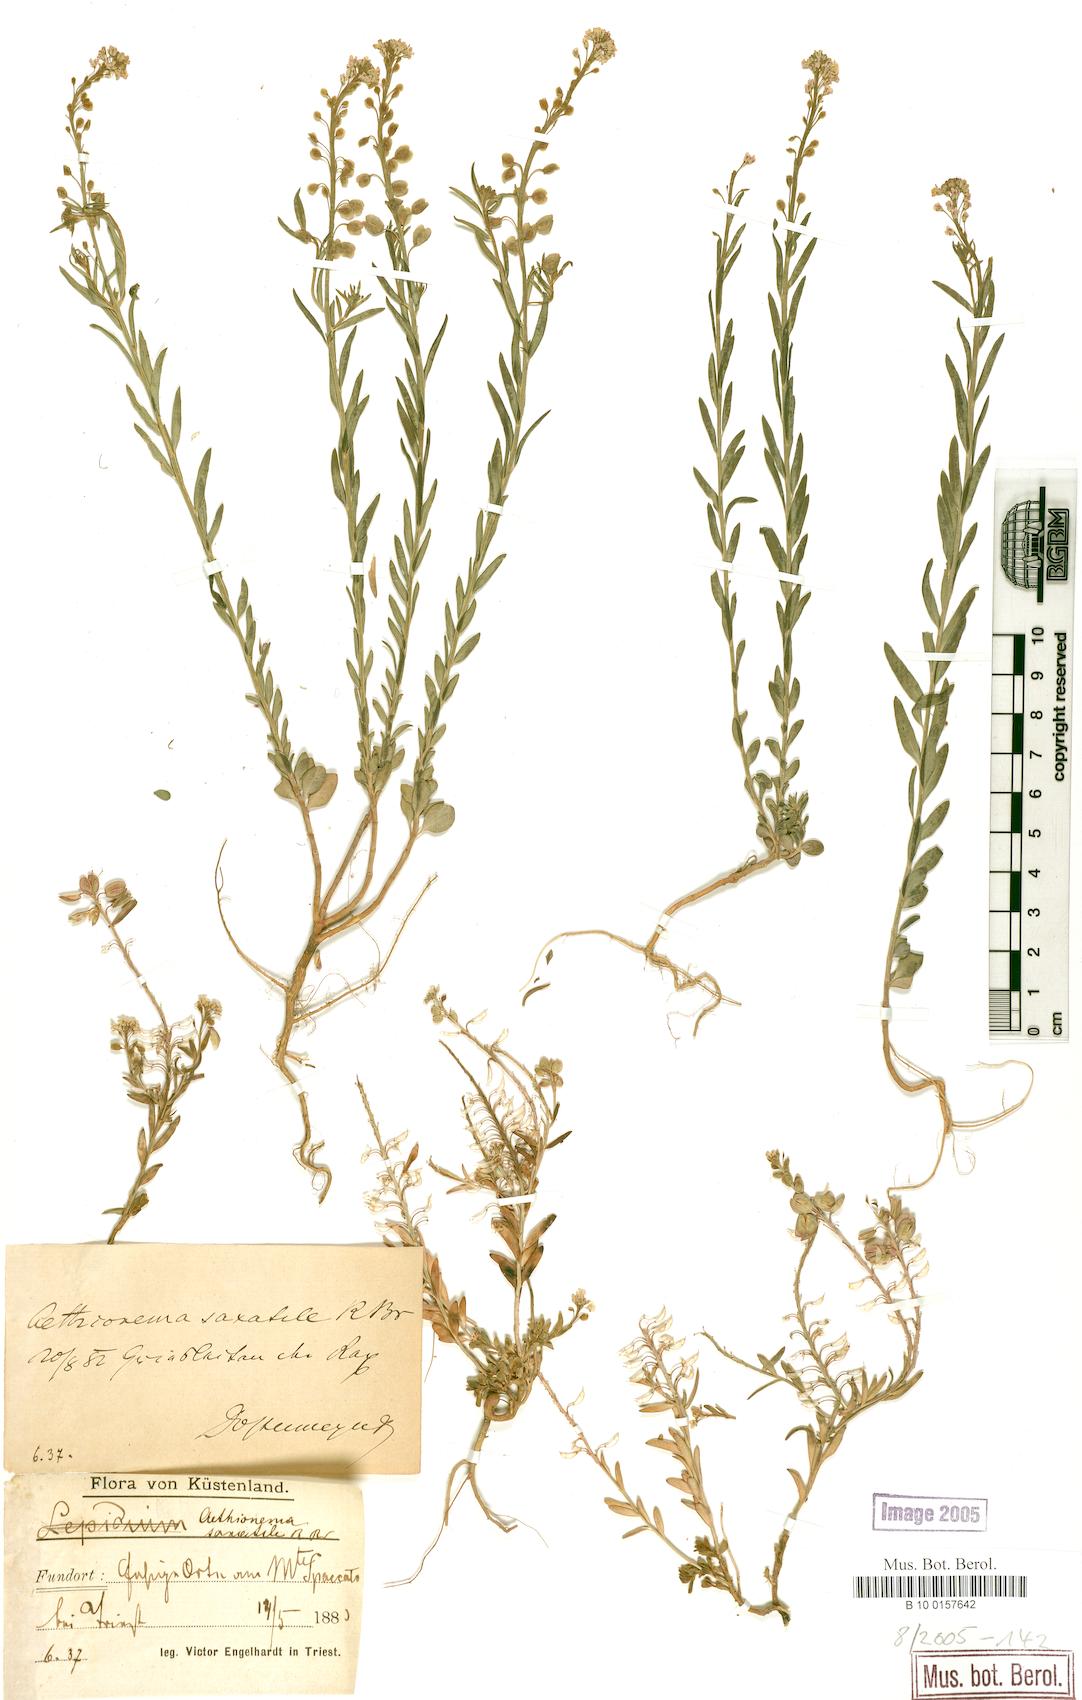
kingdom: Plantae
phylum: Tracheophyta
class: Magnoliopsida
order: Brassicales
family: Brassicaceae
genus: Aethionema
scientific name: Aethionema saxatile
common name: Burnt candytuft
